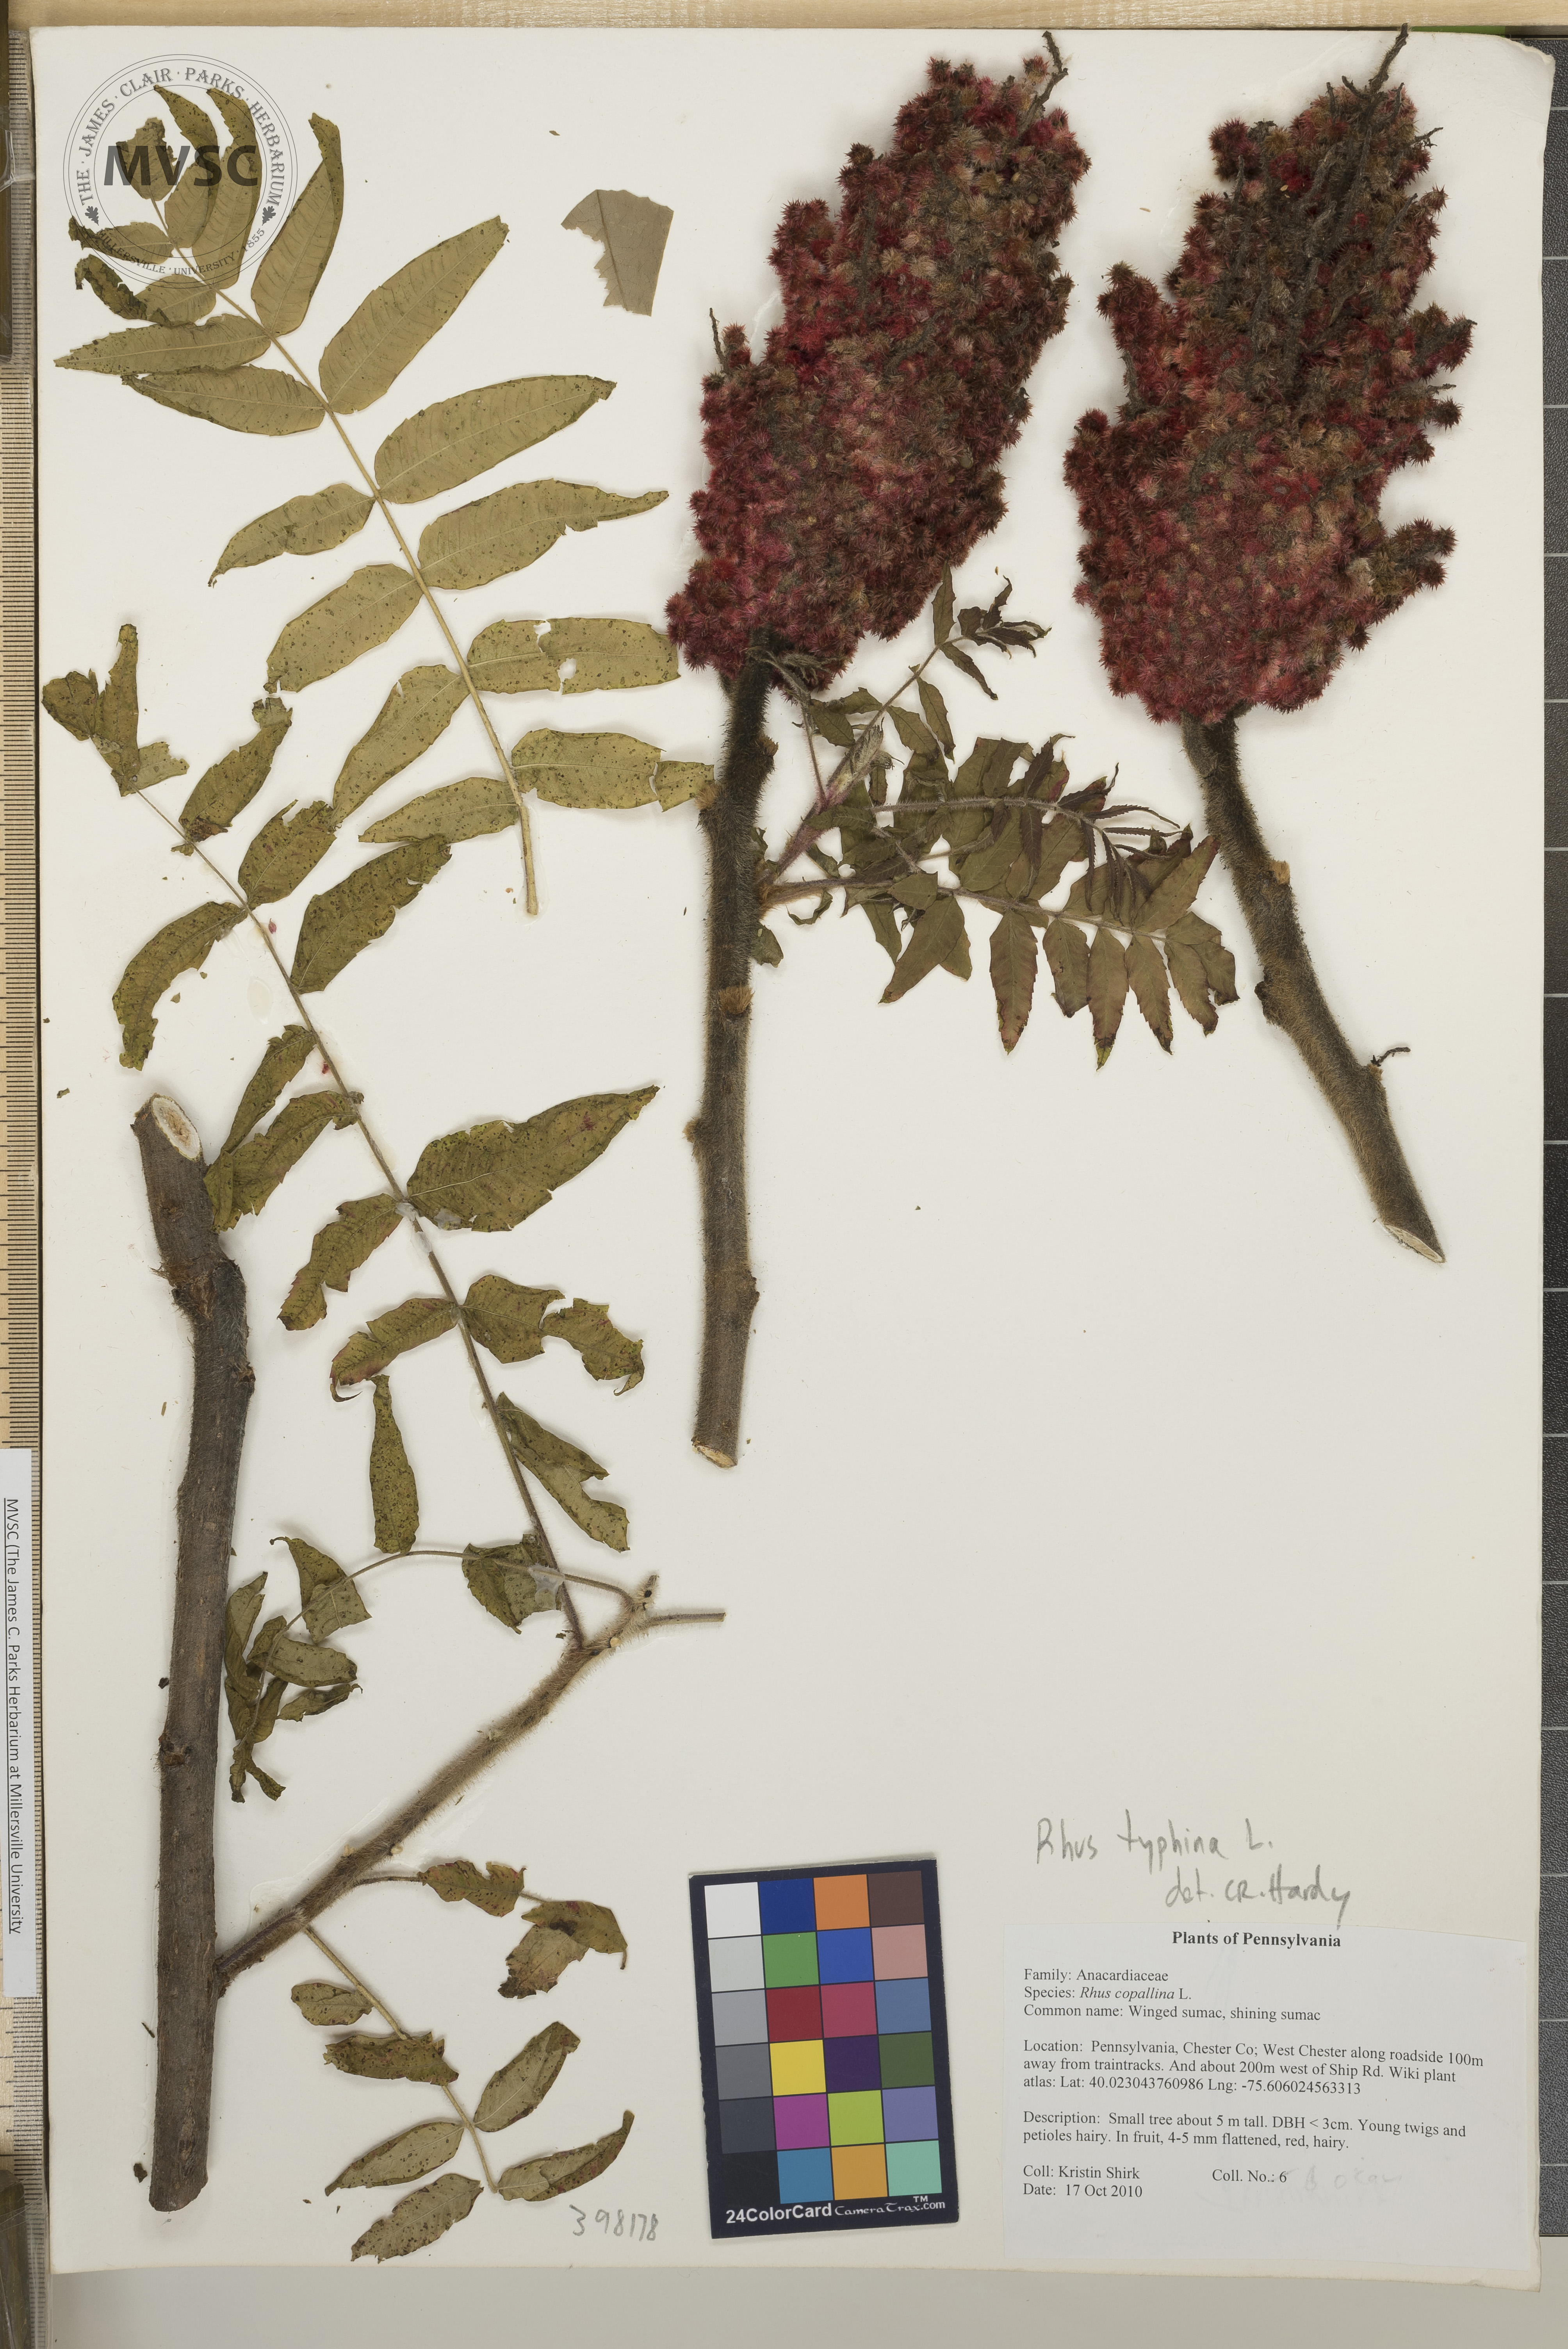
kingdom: Plantae
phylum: Tracheophyta
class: Magnoliopsida
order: Sapindales
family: Anacardiaceae
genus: Rhus
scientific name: Rhus typhina
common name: Staghorn sumac
